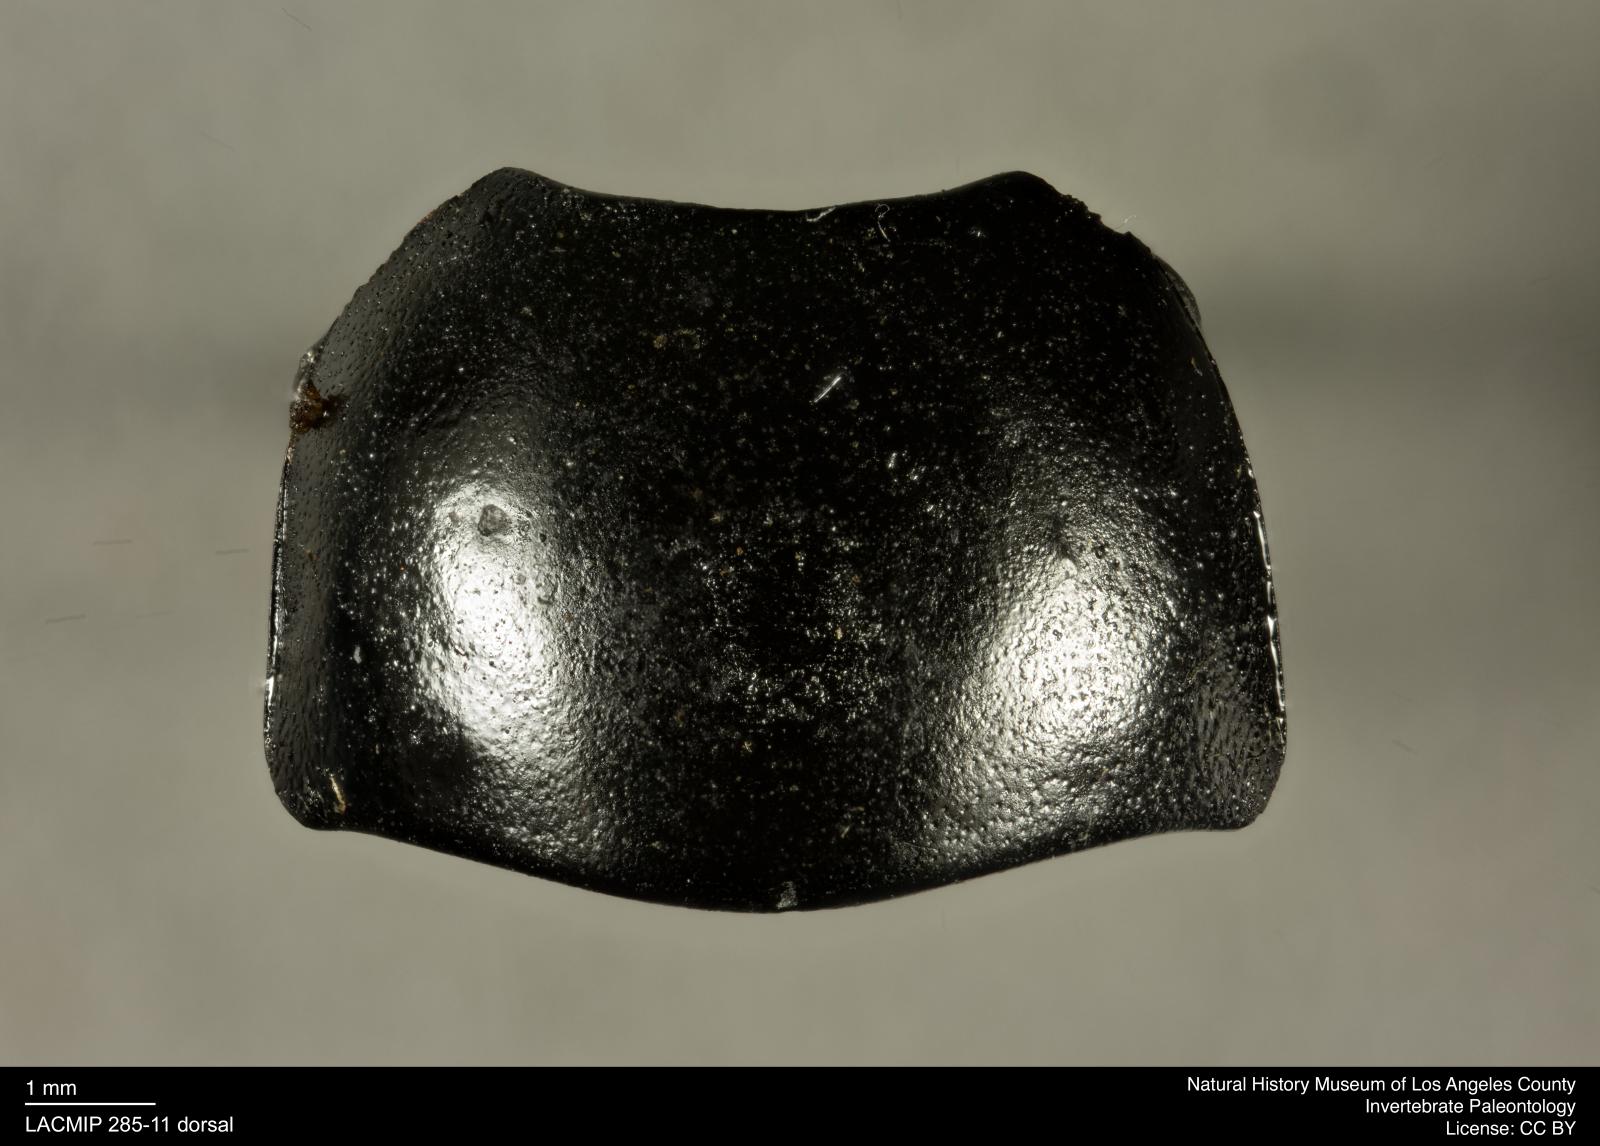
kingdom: Animalia
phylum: Arthropoda
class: Insecta
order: Coleoptera
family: Tenebrionidae
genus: Coniontis
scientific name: Coniontis abdominalis
